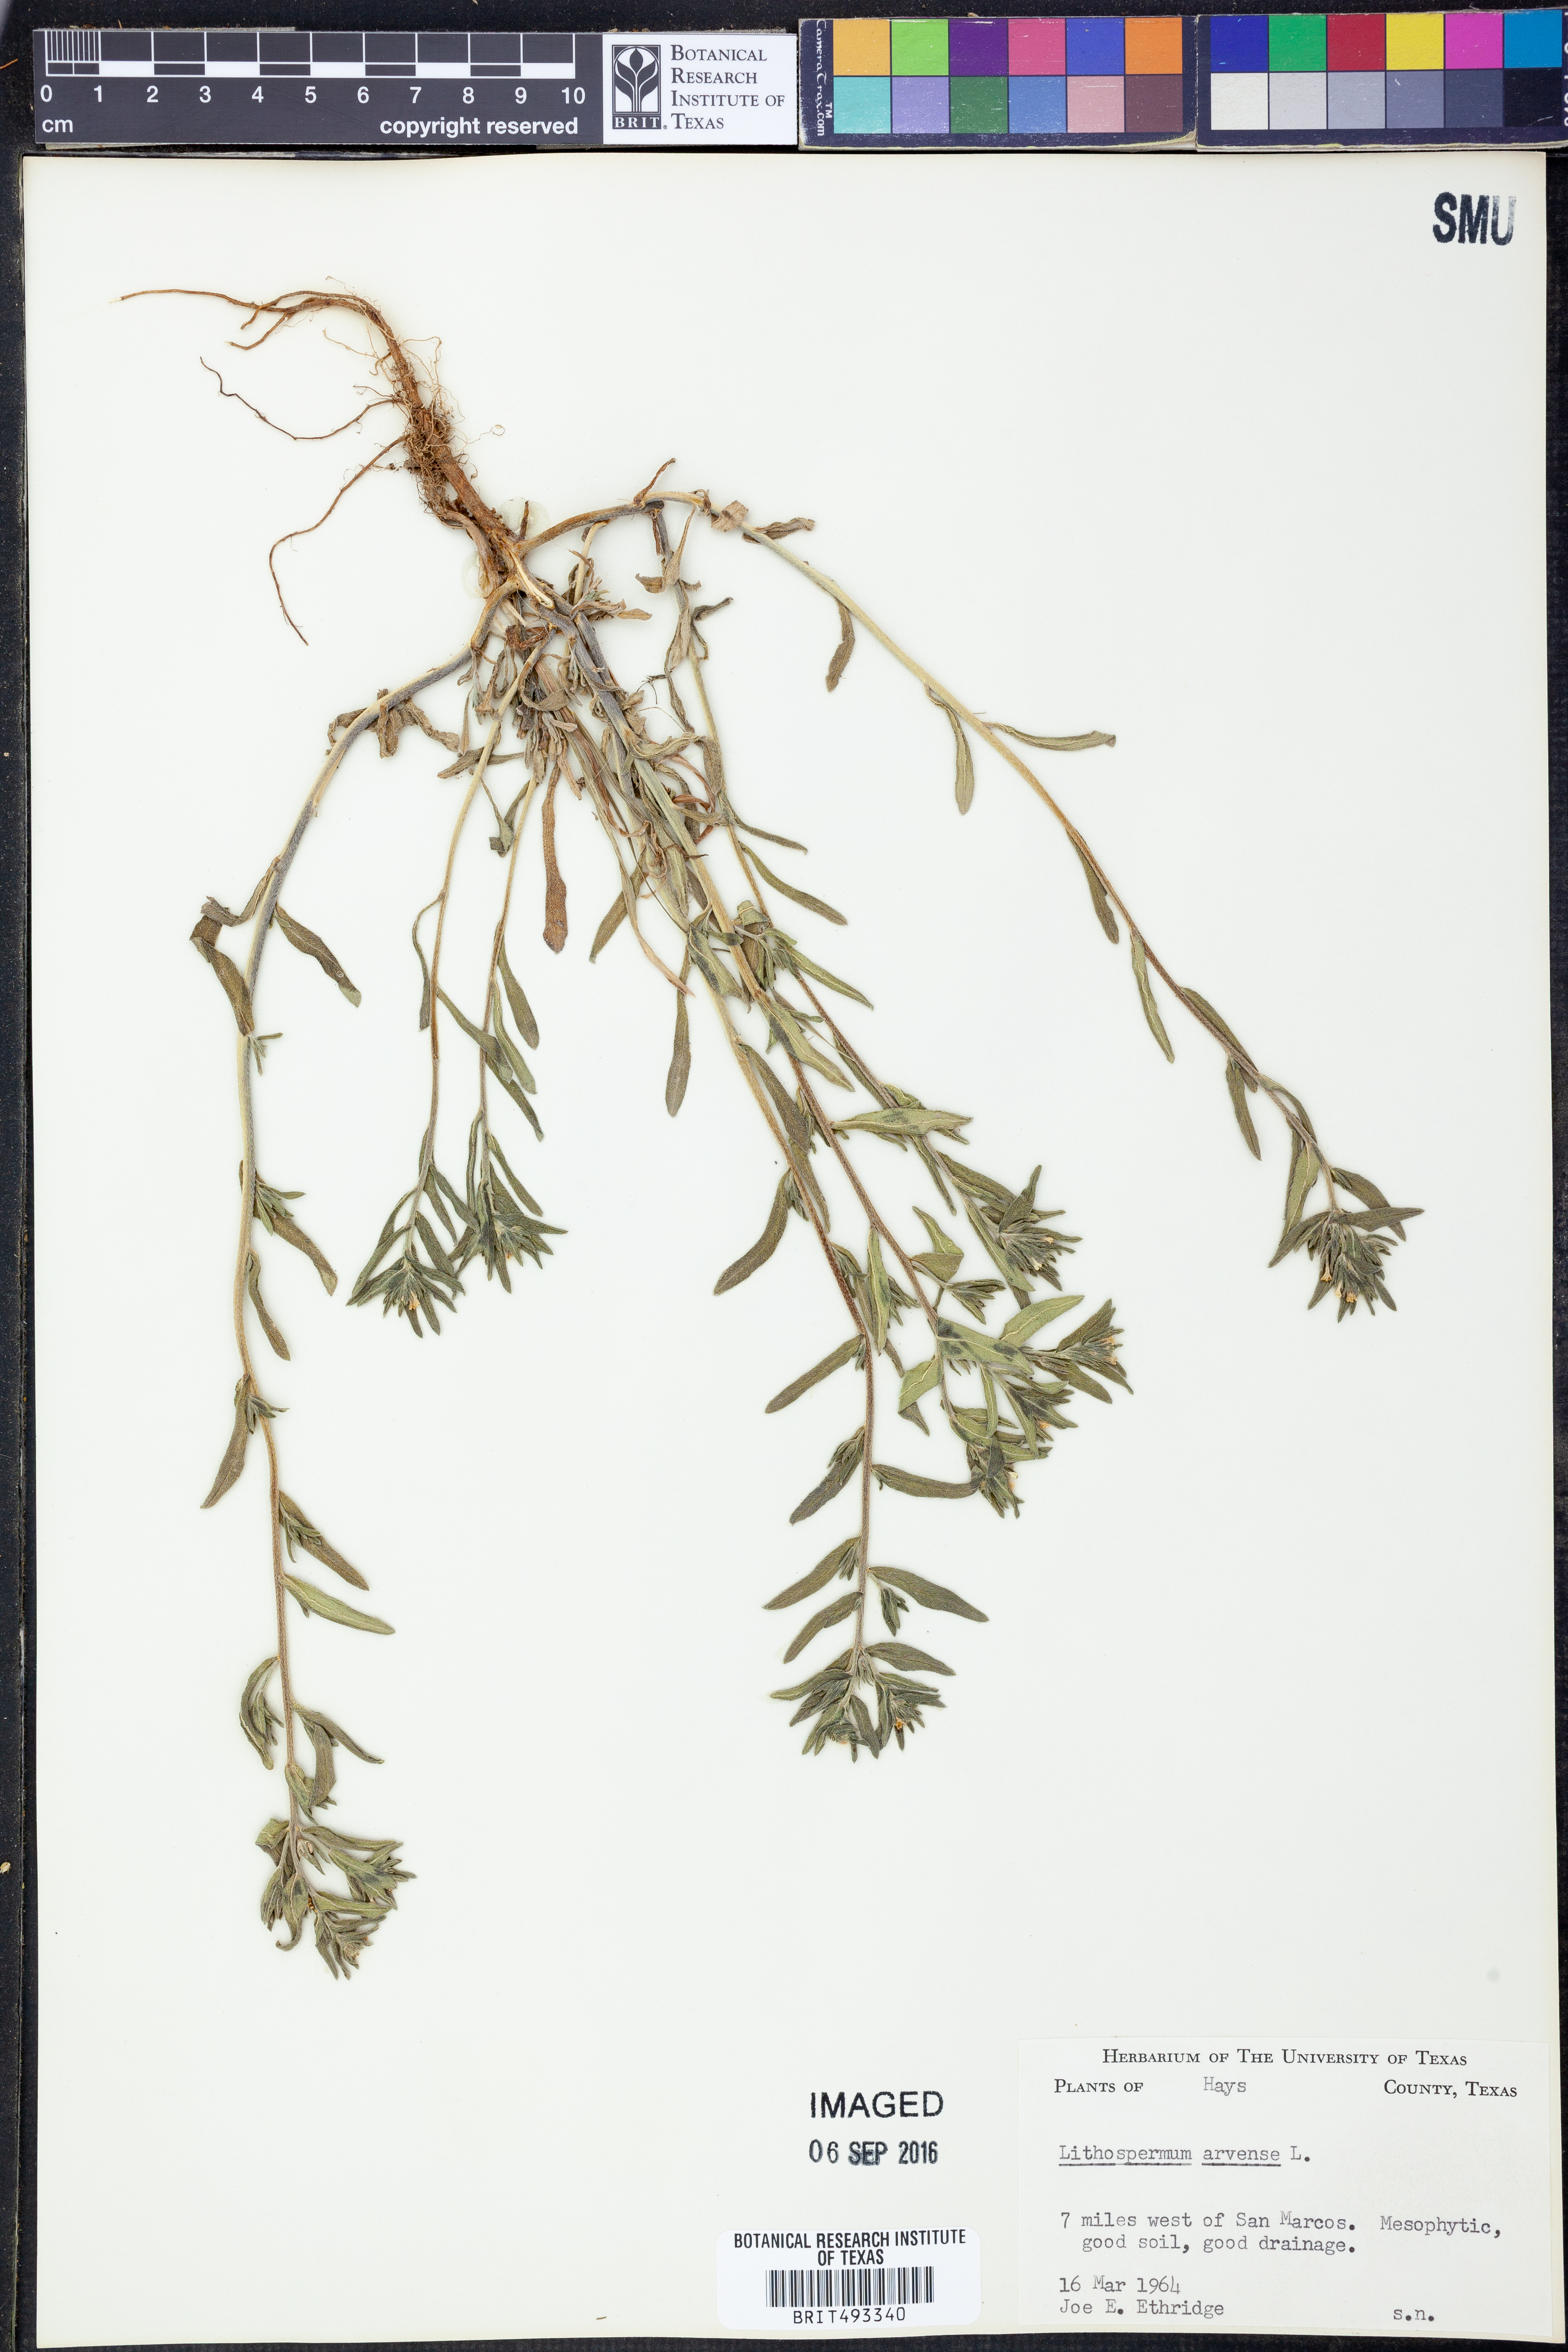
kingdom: Plantae
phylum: Tracheophyta
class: Magnoliopsida
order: Boraginales
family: Boraginaceae
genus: Lithospermum
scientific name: Lithospermum erythrorhizon
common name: Purple gromwell
